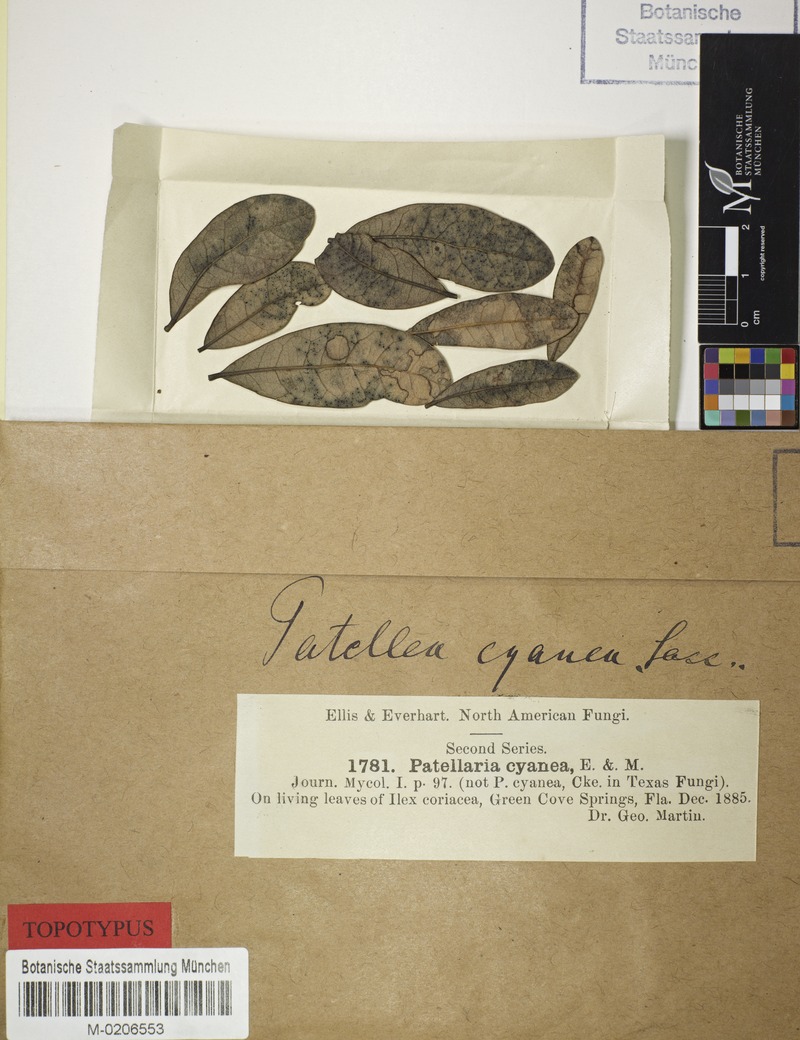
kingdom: Fungi
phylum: Ascomycota
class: Dothideomycetes
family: Saccardiaceae
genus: Phillipsiella
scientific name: Phillipsiella ellisii
